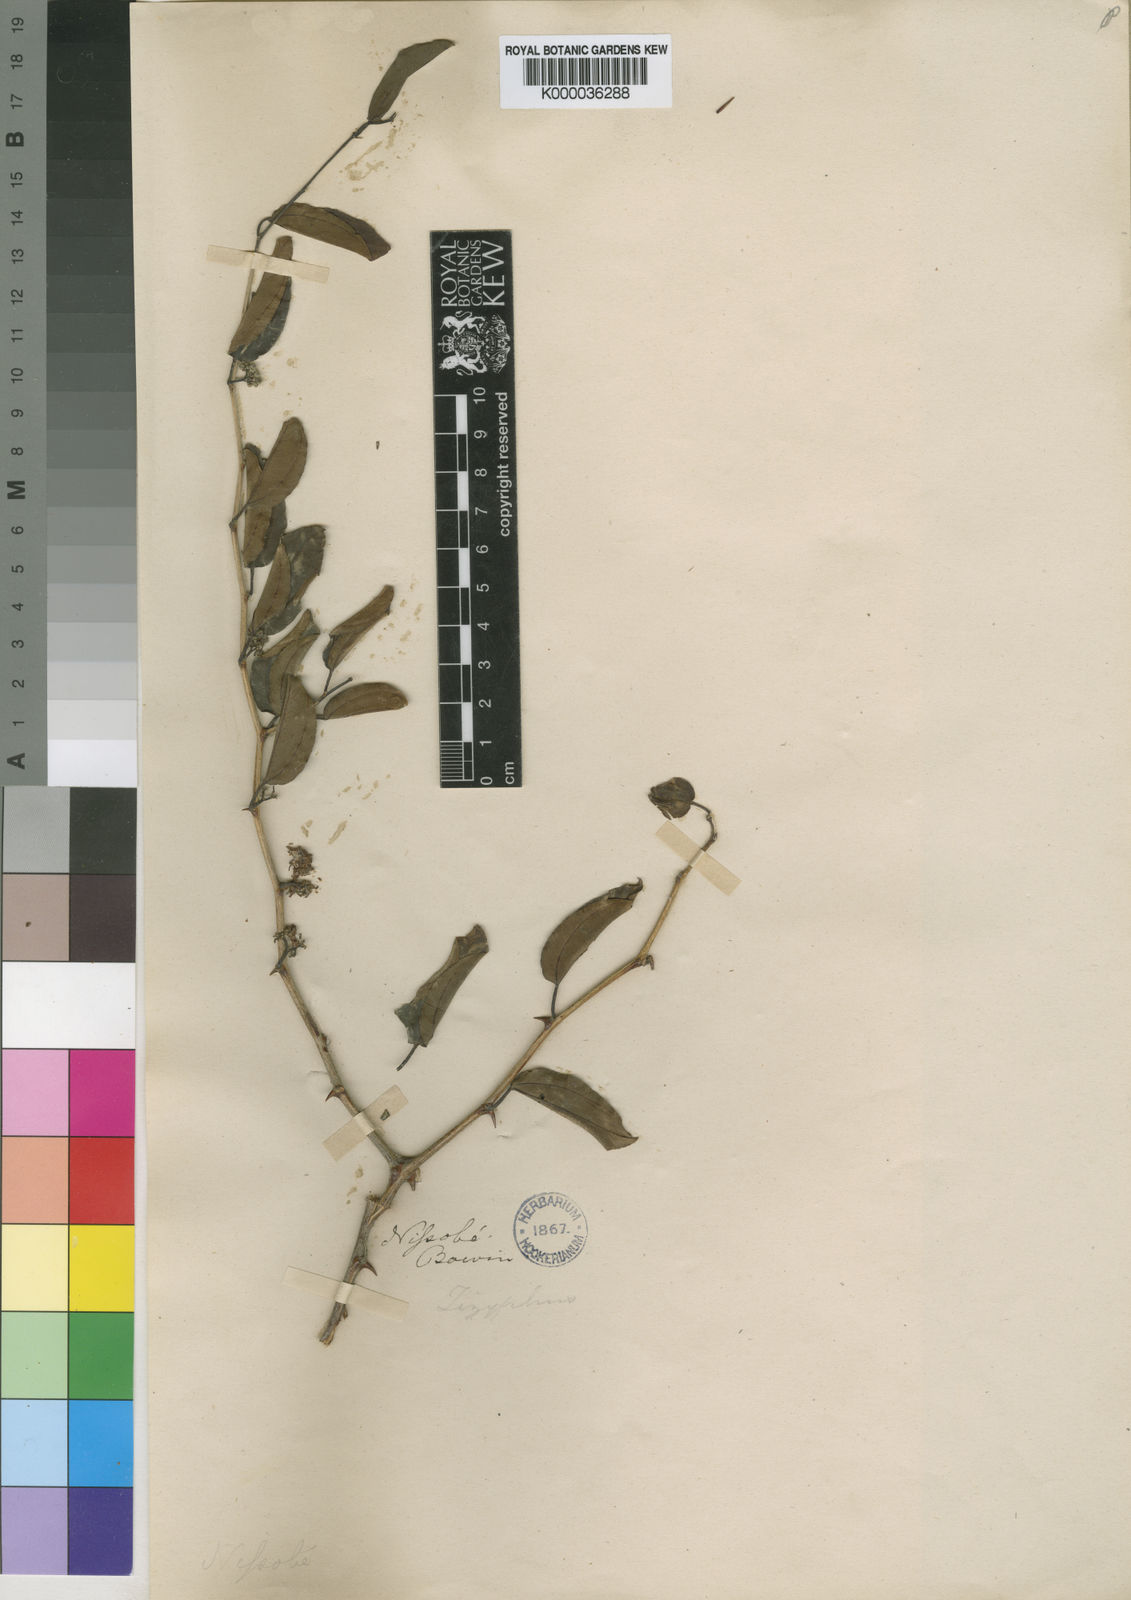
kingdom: Plantae
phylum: Tracheophyta
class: Magnoliopsida
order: Rosales
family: Rhamnaceae
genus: Ziziphus
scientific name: Ziziphus spina-christi
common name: Syrian christ-thorn
